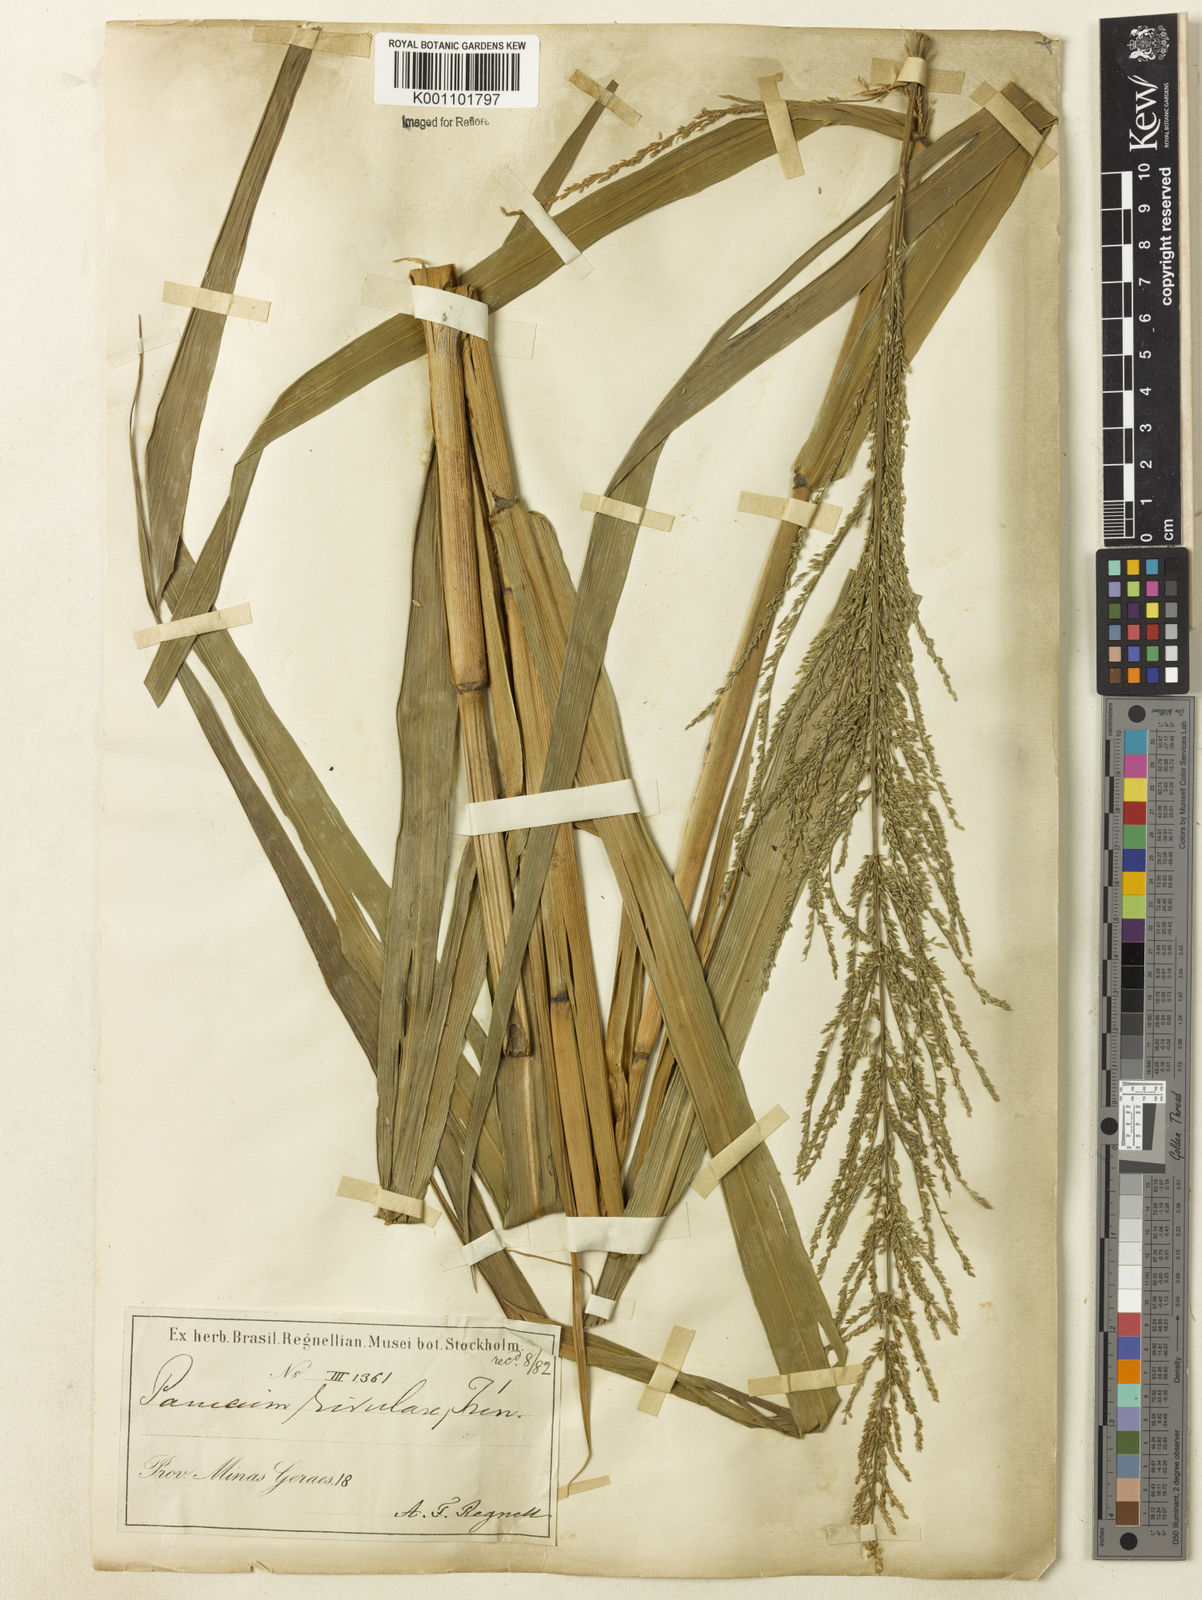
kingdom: Plantae
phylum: Tracheophyta
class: Liliopsida
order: Poales
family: Poaceae
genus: Hymenachne
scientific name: Hymenachne condensata
